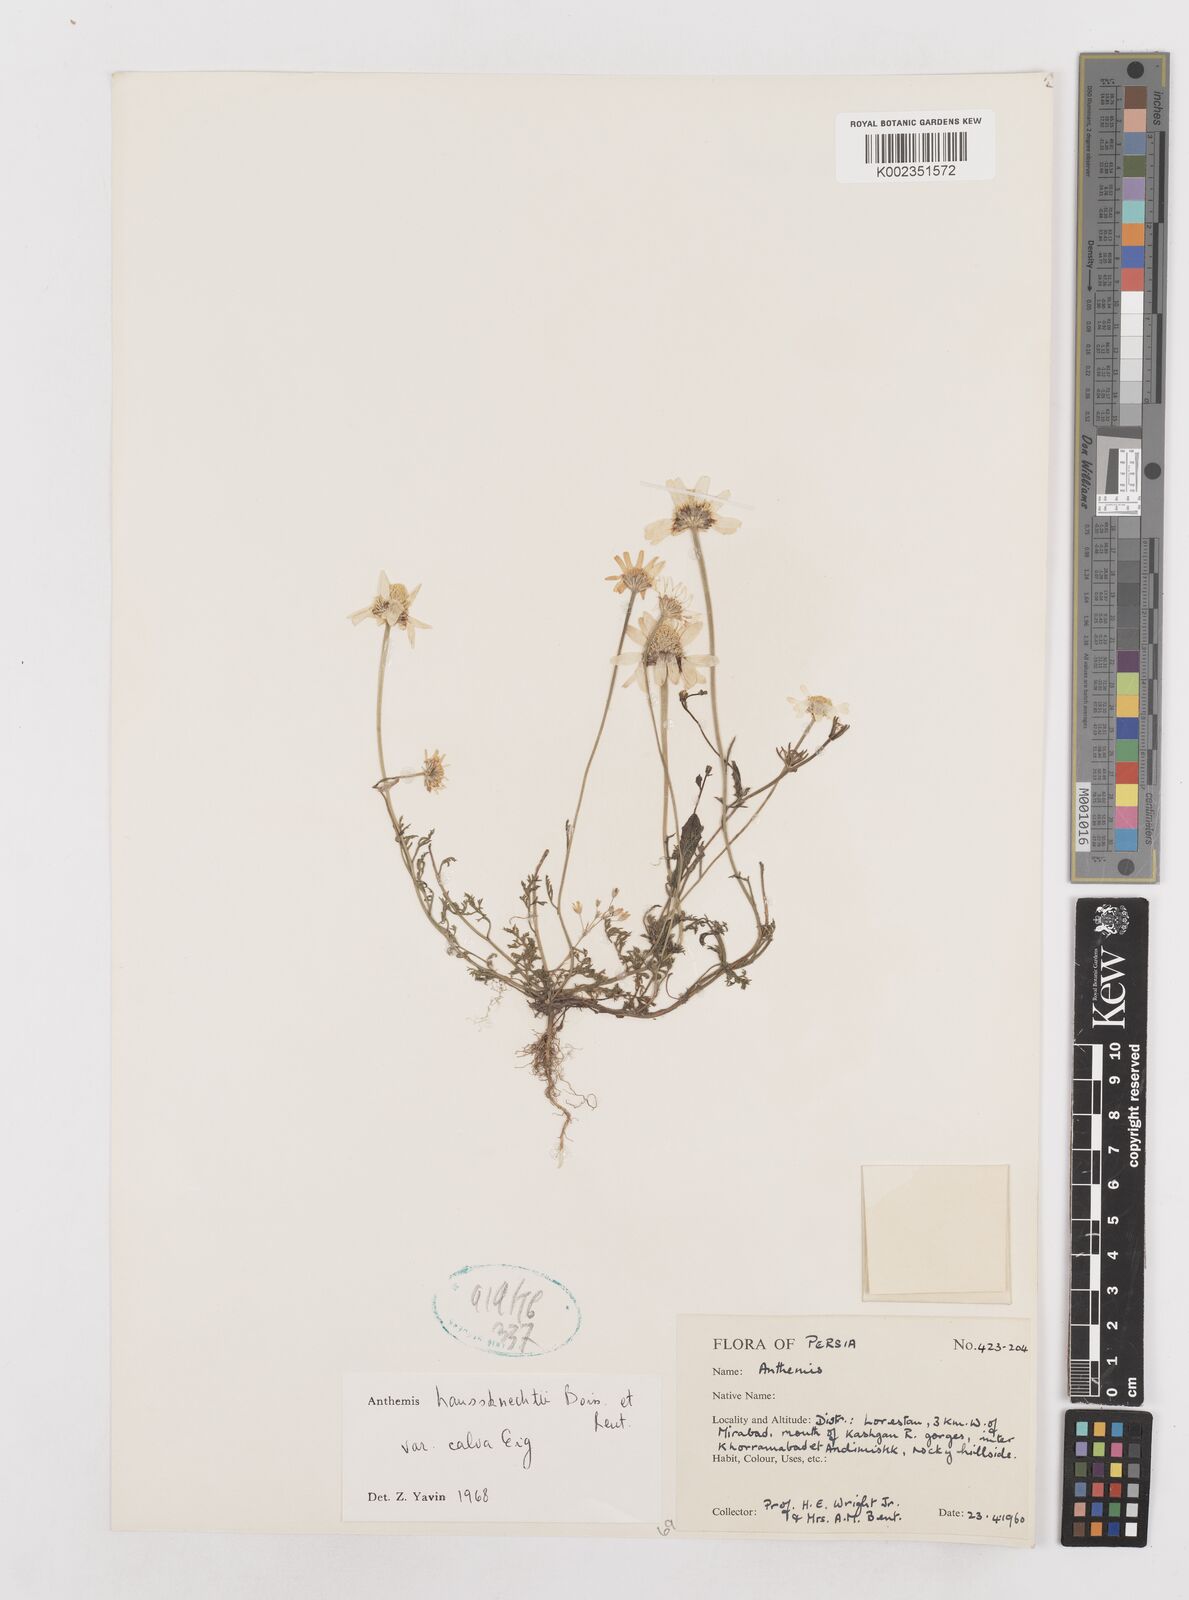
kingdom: Plantae
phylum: Tracheophyta
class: Magnoliopsida
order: Asterales
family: Asteraceae
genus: Anthemis
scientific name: Anthemis haussknechtii
